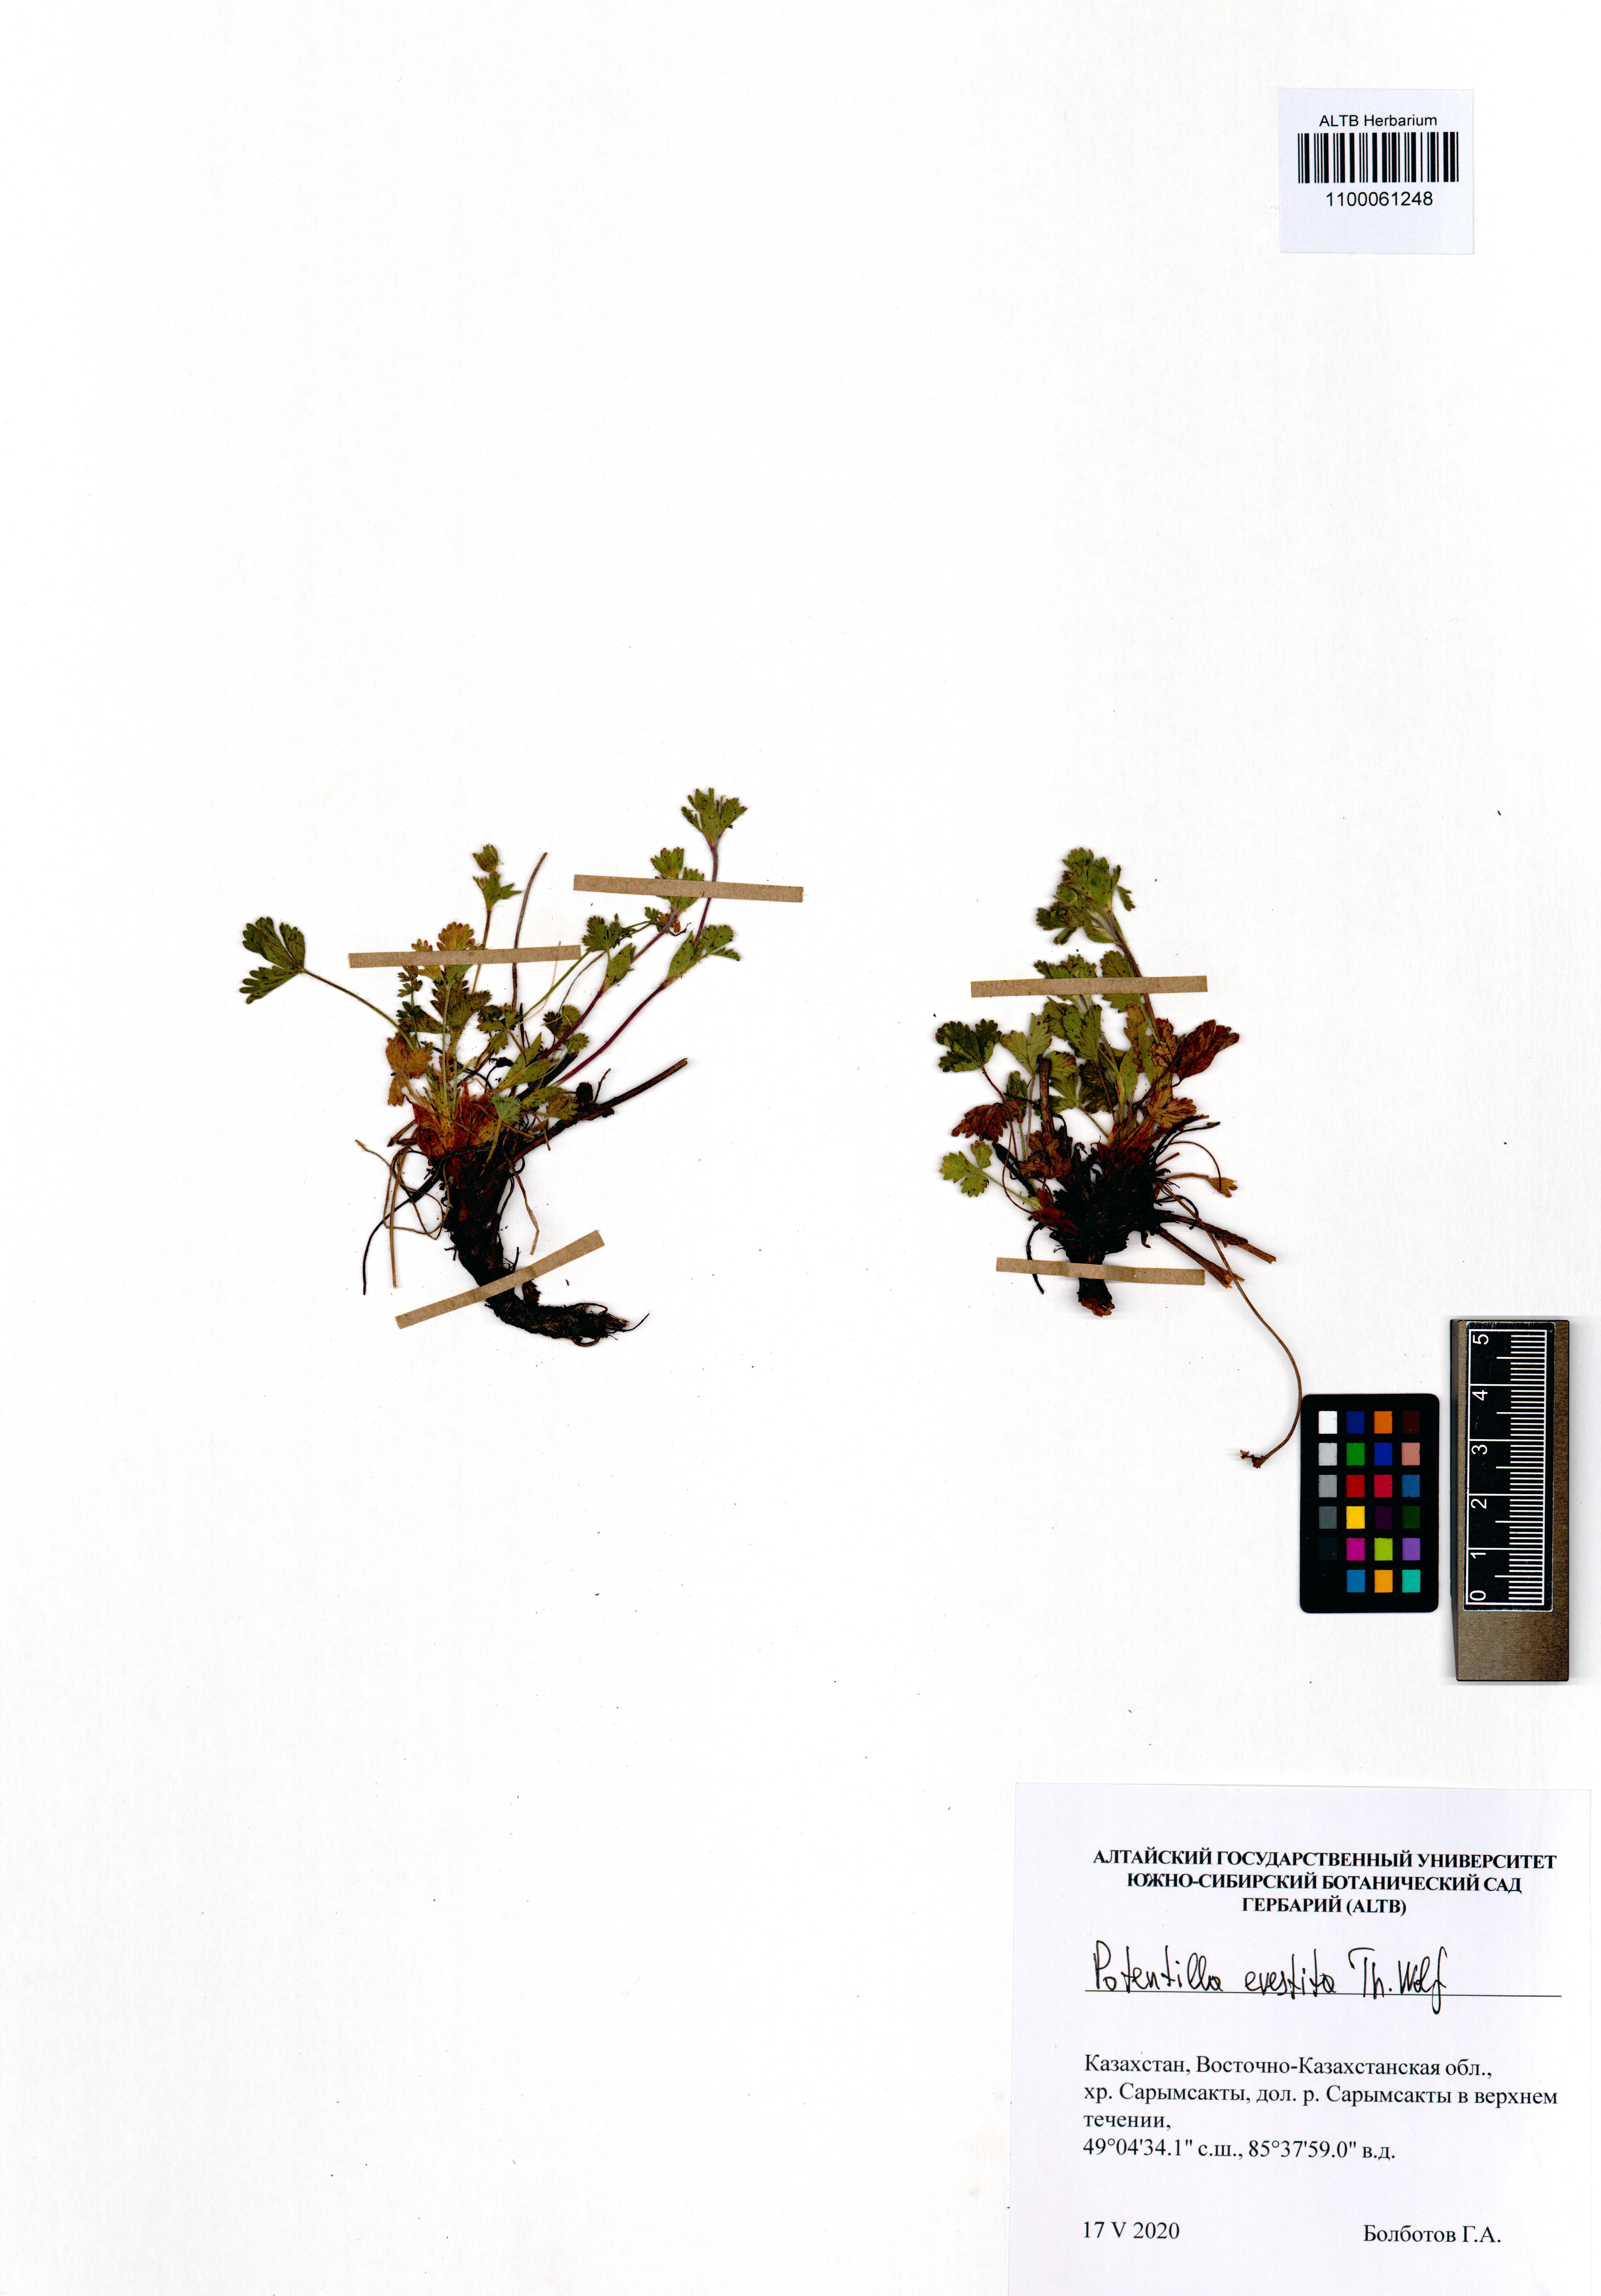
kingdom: Plantae
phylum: Tracheophyta
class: Magnoliopsida
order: Rosales
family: Rosaceae
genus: Potentilla
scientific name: Potentilla evestita
